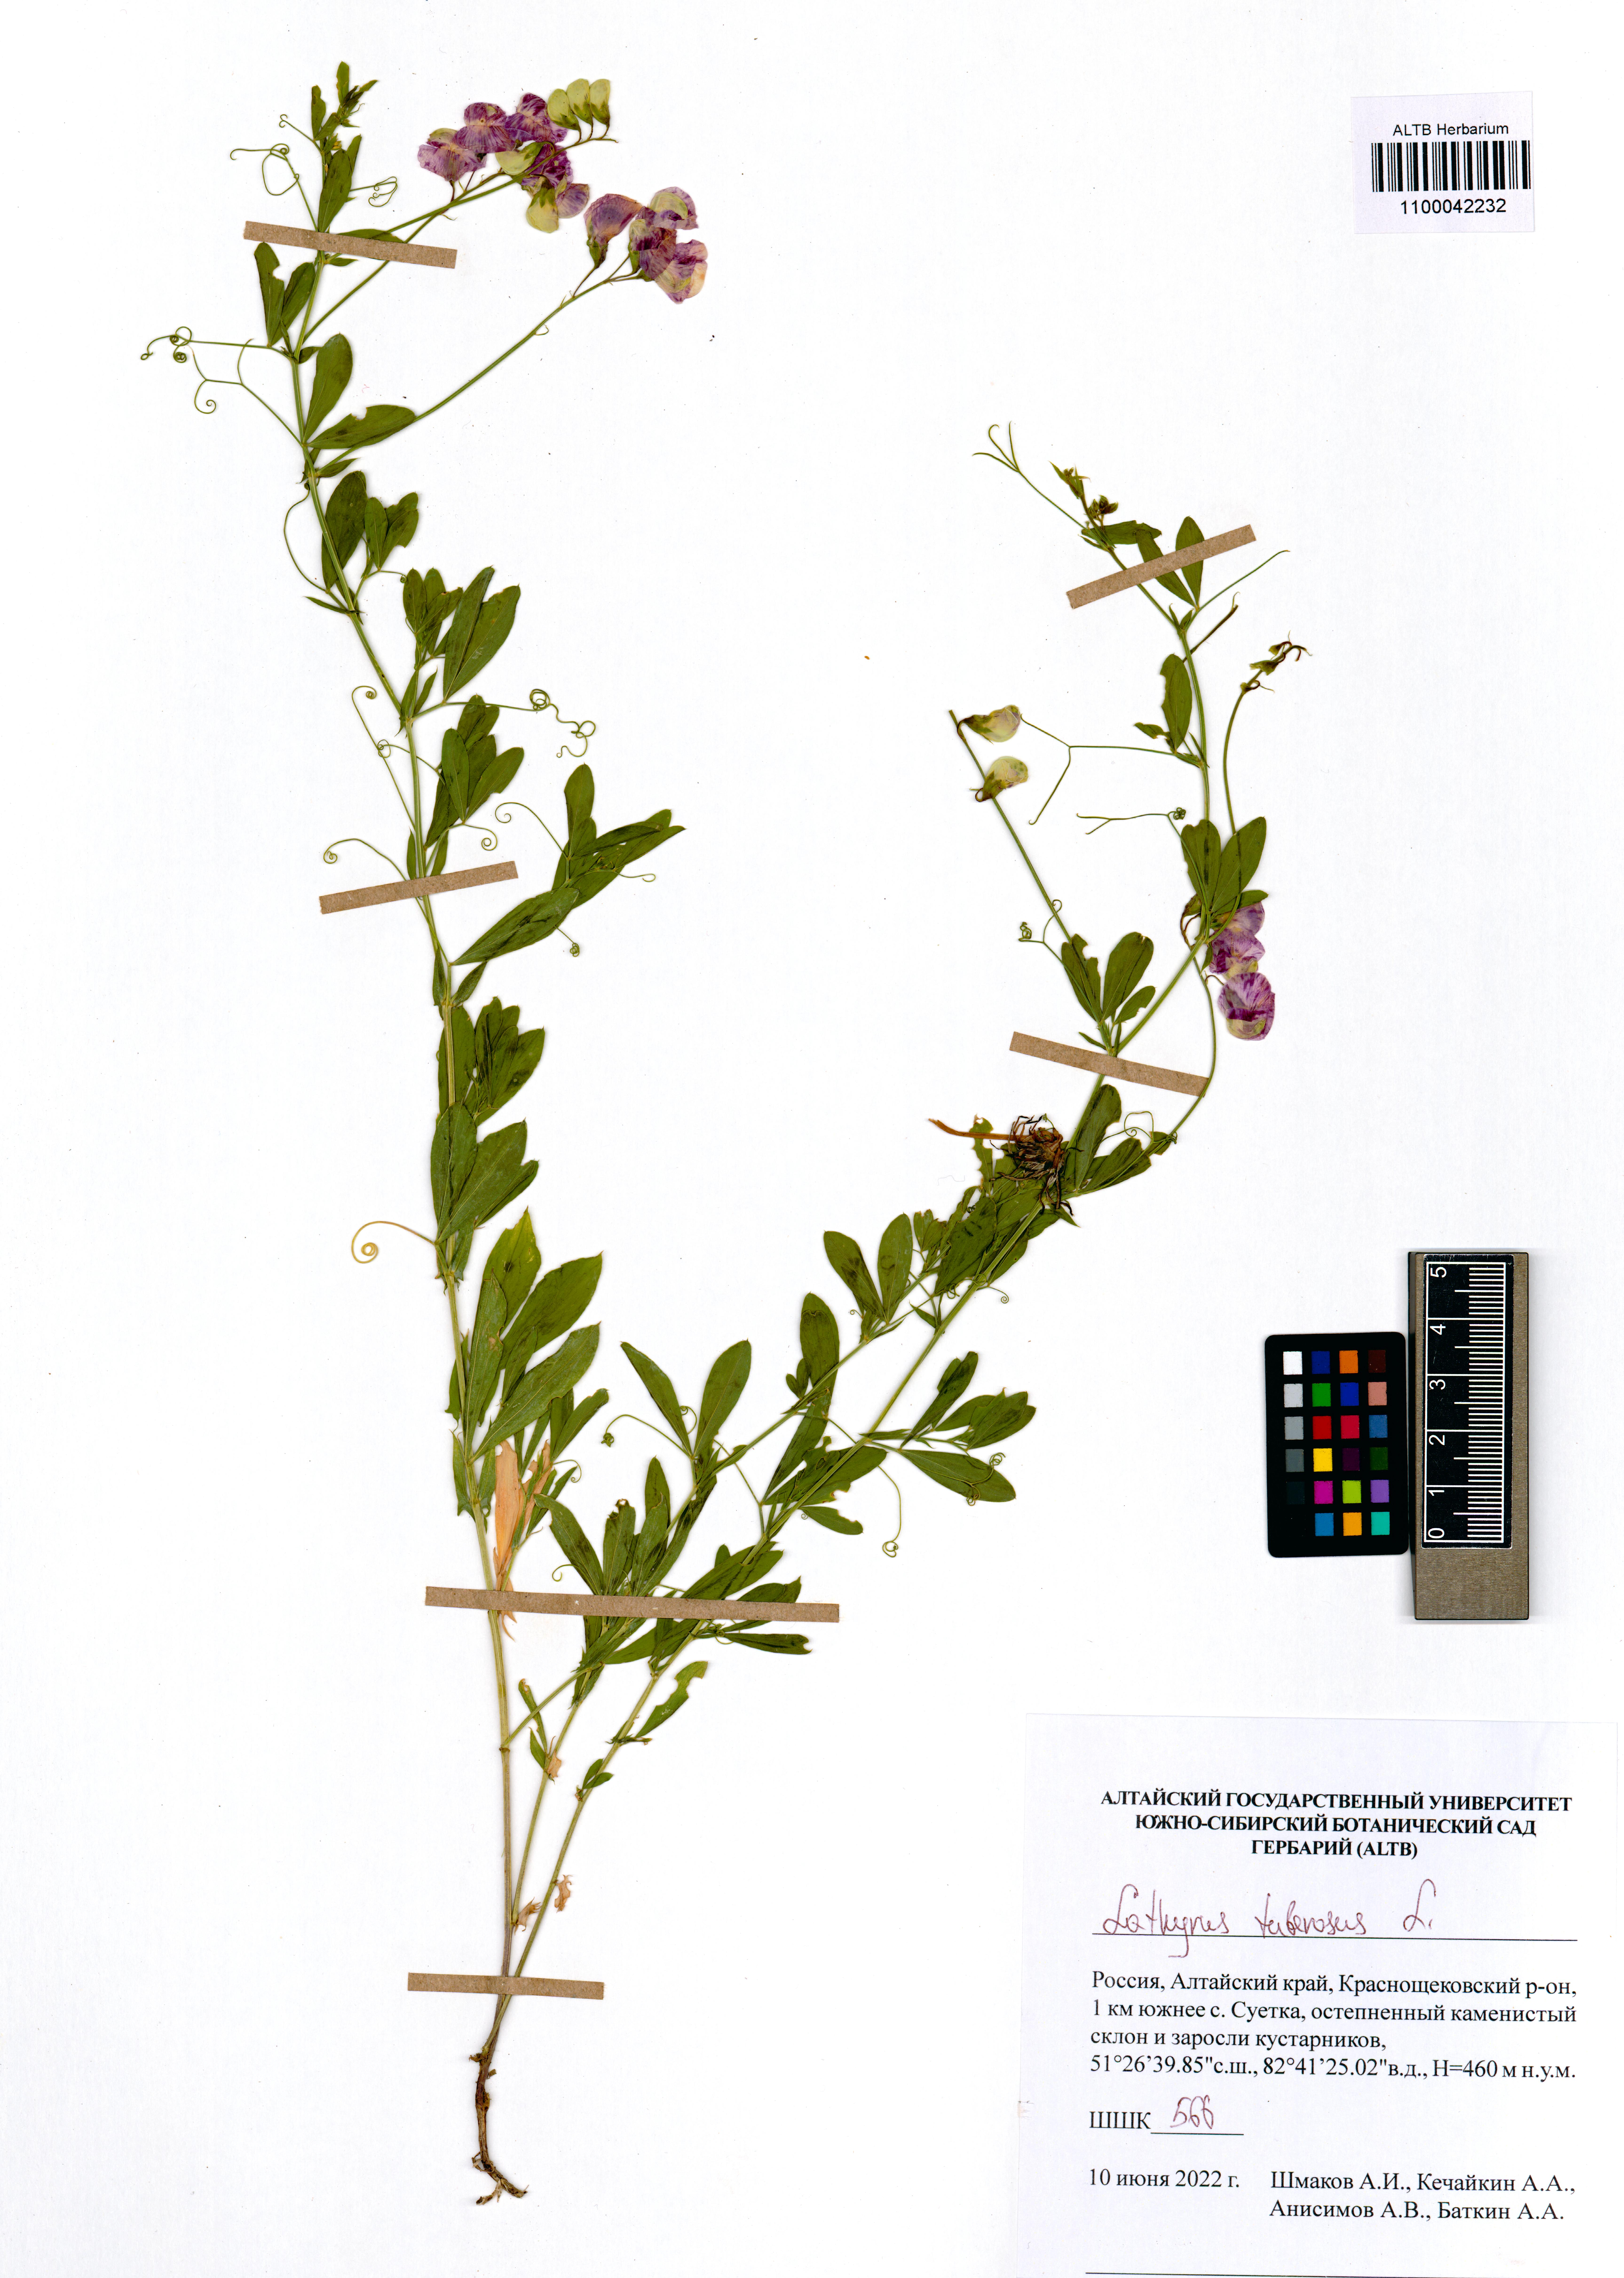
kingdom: Plantae
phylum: Tracheophyta
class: Magnoliopsida
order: Fabales
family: Fabaceae
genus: Lathyrus
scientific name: Lathyrus tuberosus
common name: Tuberous pea
